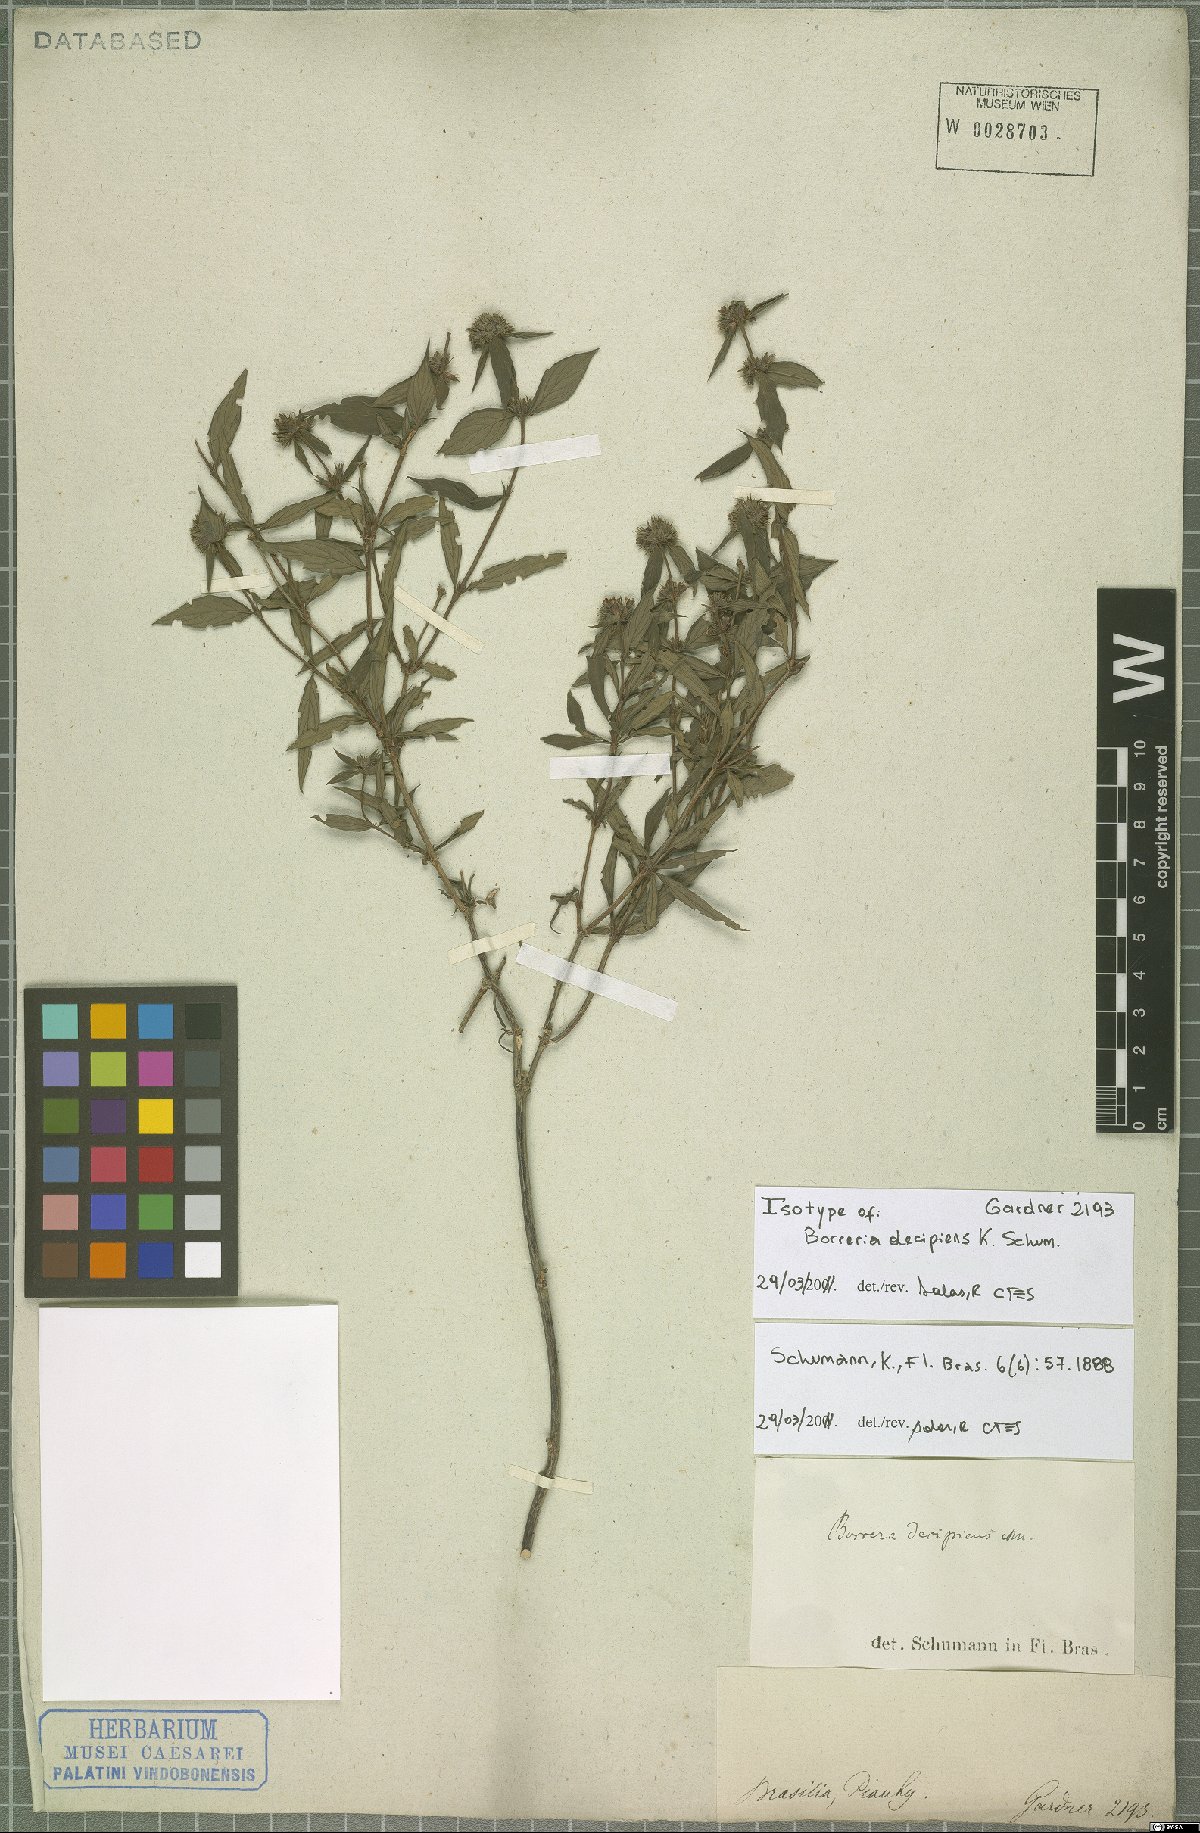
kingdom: Plantae
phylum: Tracheophyta
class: Magnoliopsida
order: Gentianales
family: Rubiaceae
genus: Spermacoce
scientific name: Spermacoce decipiens
